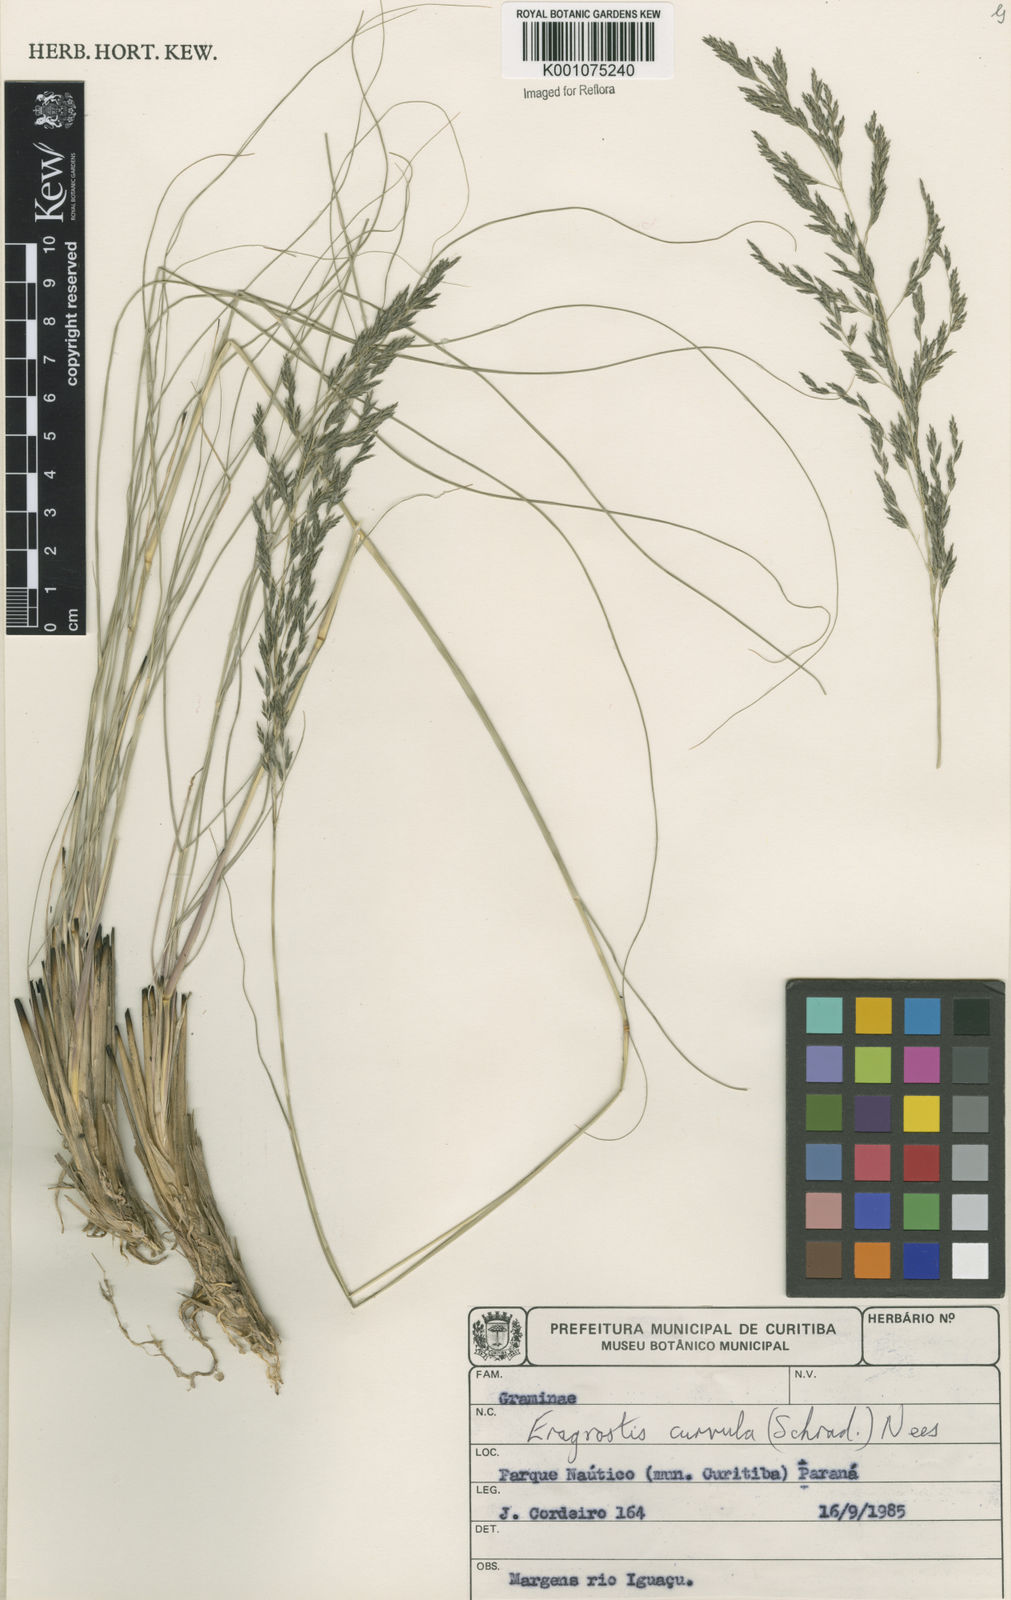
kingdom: Plantae
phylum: Tracheophyta
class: Liliopsida
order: Poales
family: Poaceae
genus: Eragrostis
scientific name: Eragrostis curvula
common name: African love-grass
